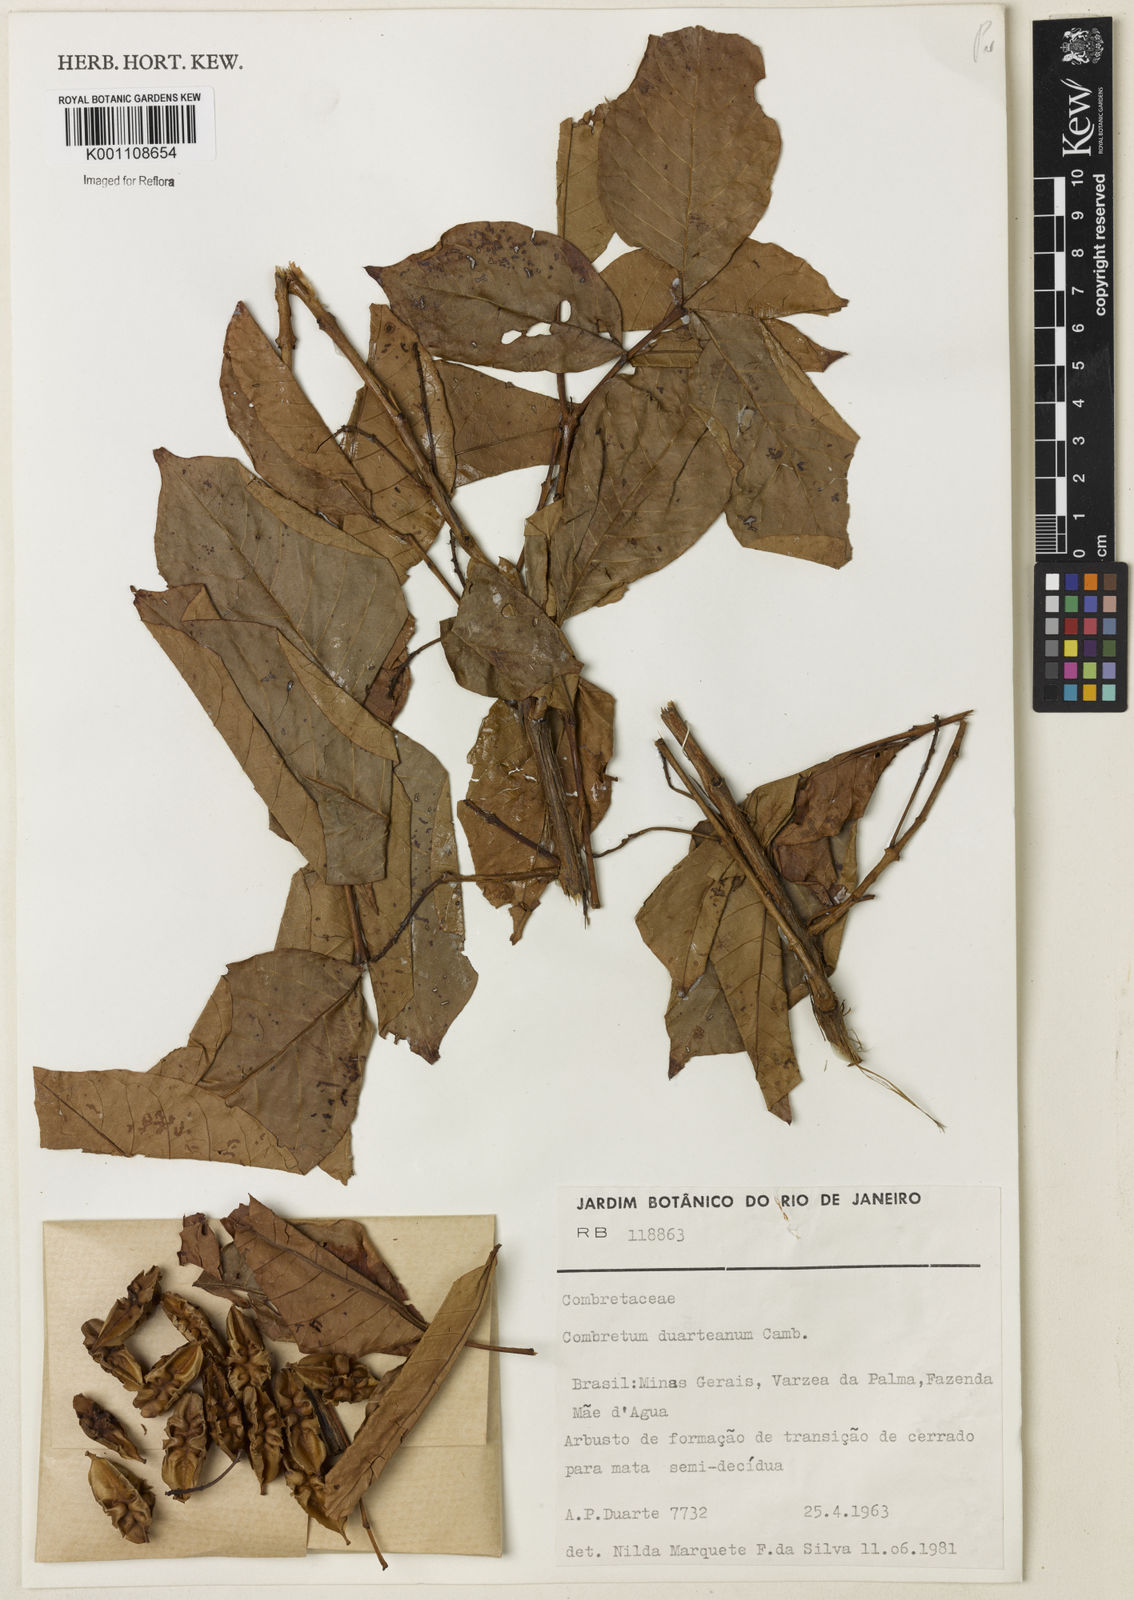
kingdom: Plantae
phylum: Tracheophyta
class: Magnoliopsida
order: Myrtales
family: Combretaceae
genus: Combretum
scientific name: Combretum duarteanum
